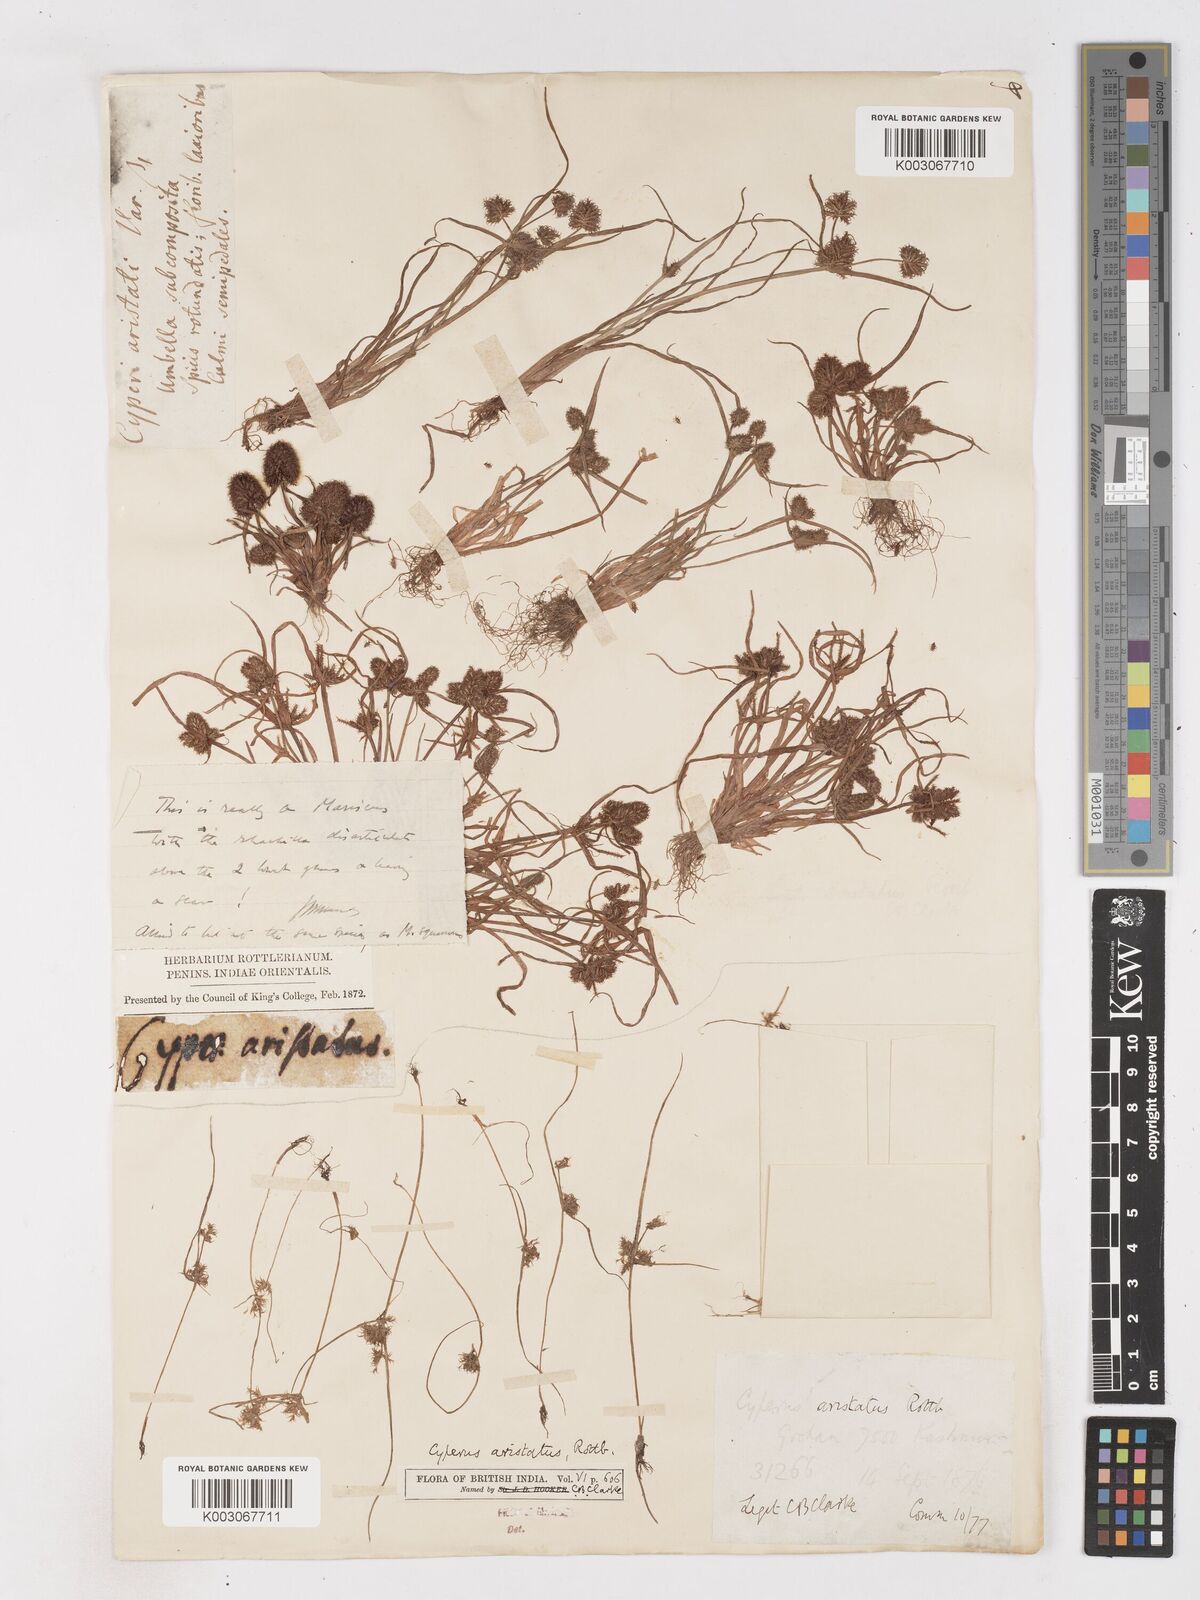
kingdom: Plantae
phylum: Tracheophyta
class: Liliopsida
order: Poales
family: Cyperaceae
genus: Cyperus
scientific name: Cyperus squarrosus
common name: Awned cyperus
